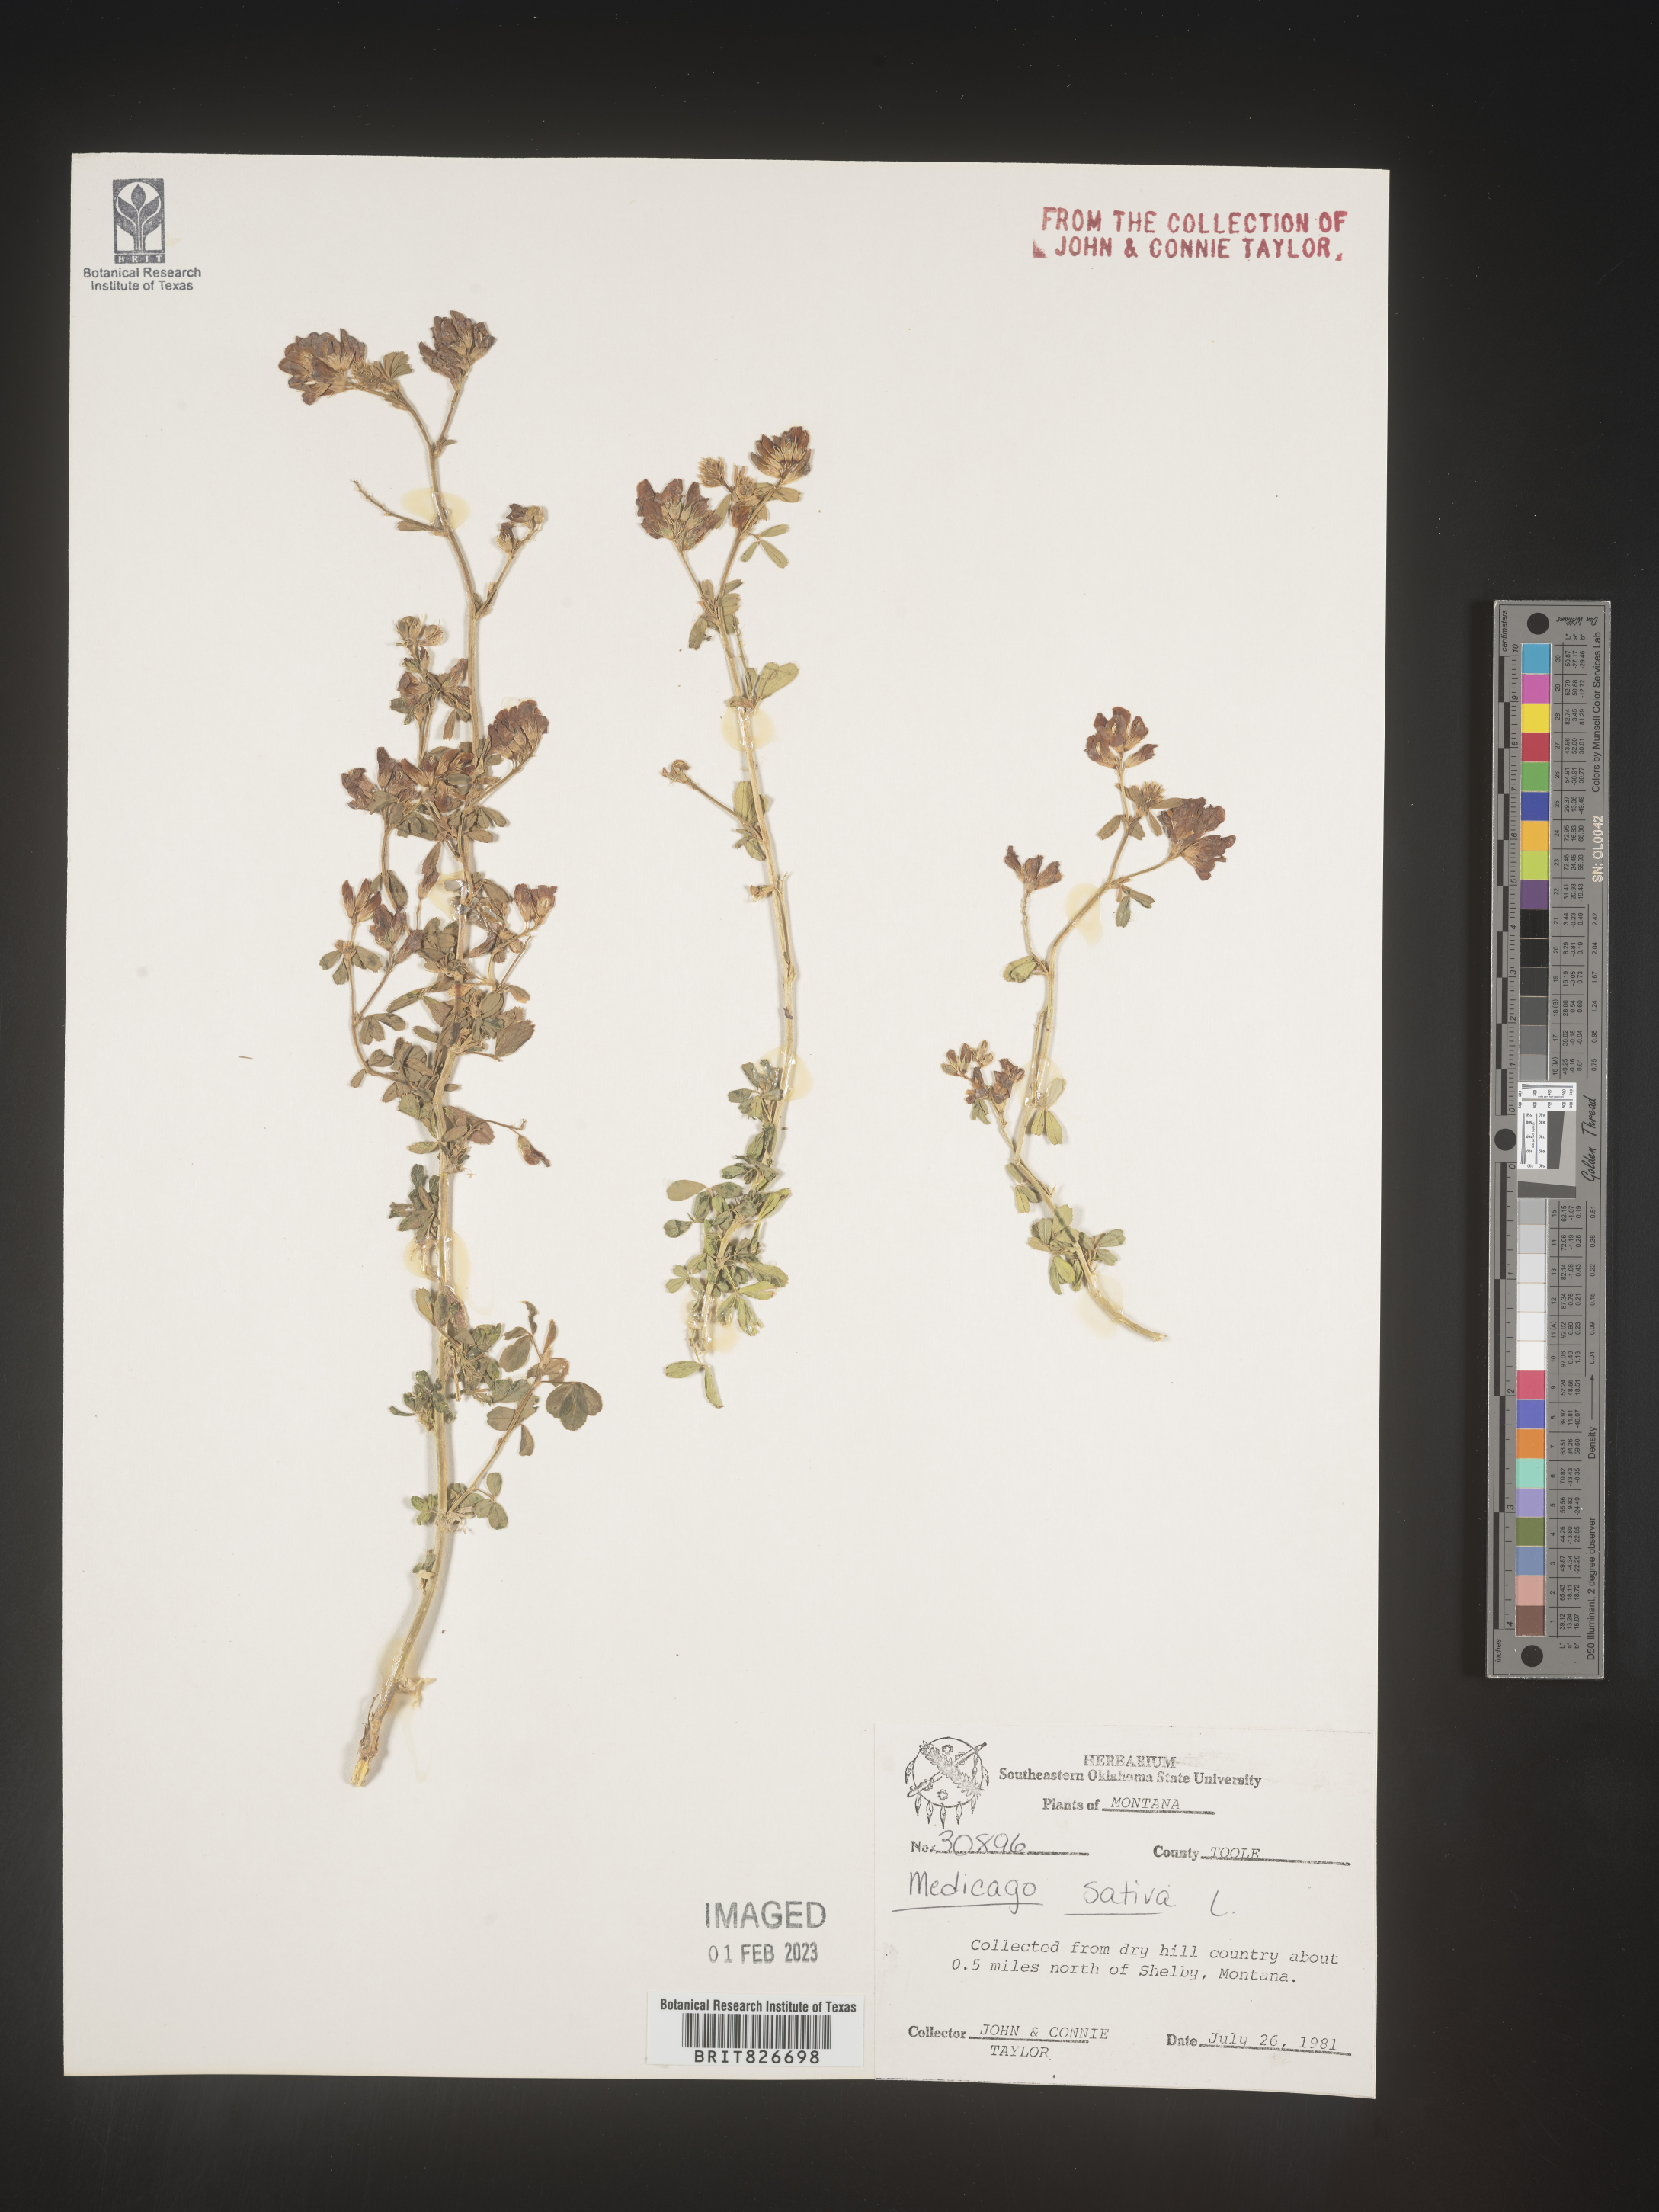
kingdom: Plantae
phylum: Tracheophyta
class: Magnoliopsida
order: Fabales
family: Fabaceae
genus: Medicago
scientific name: Medicago sativa
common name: Alfalfa
